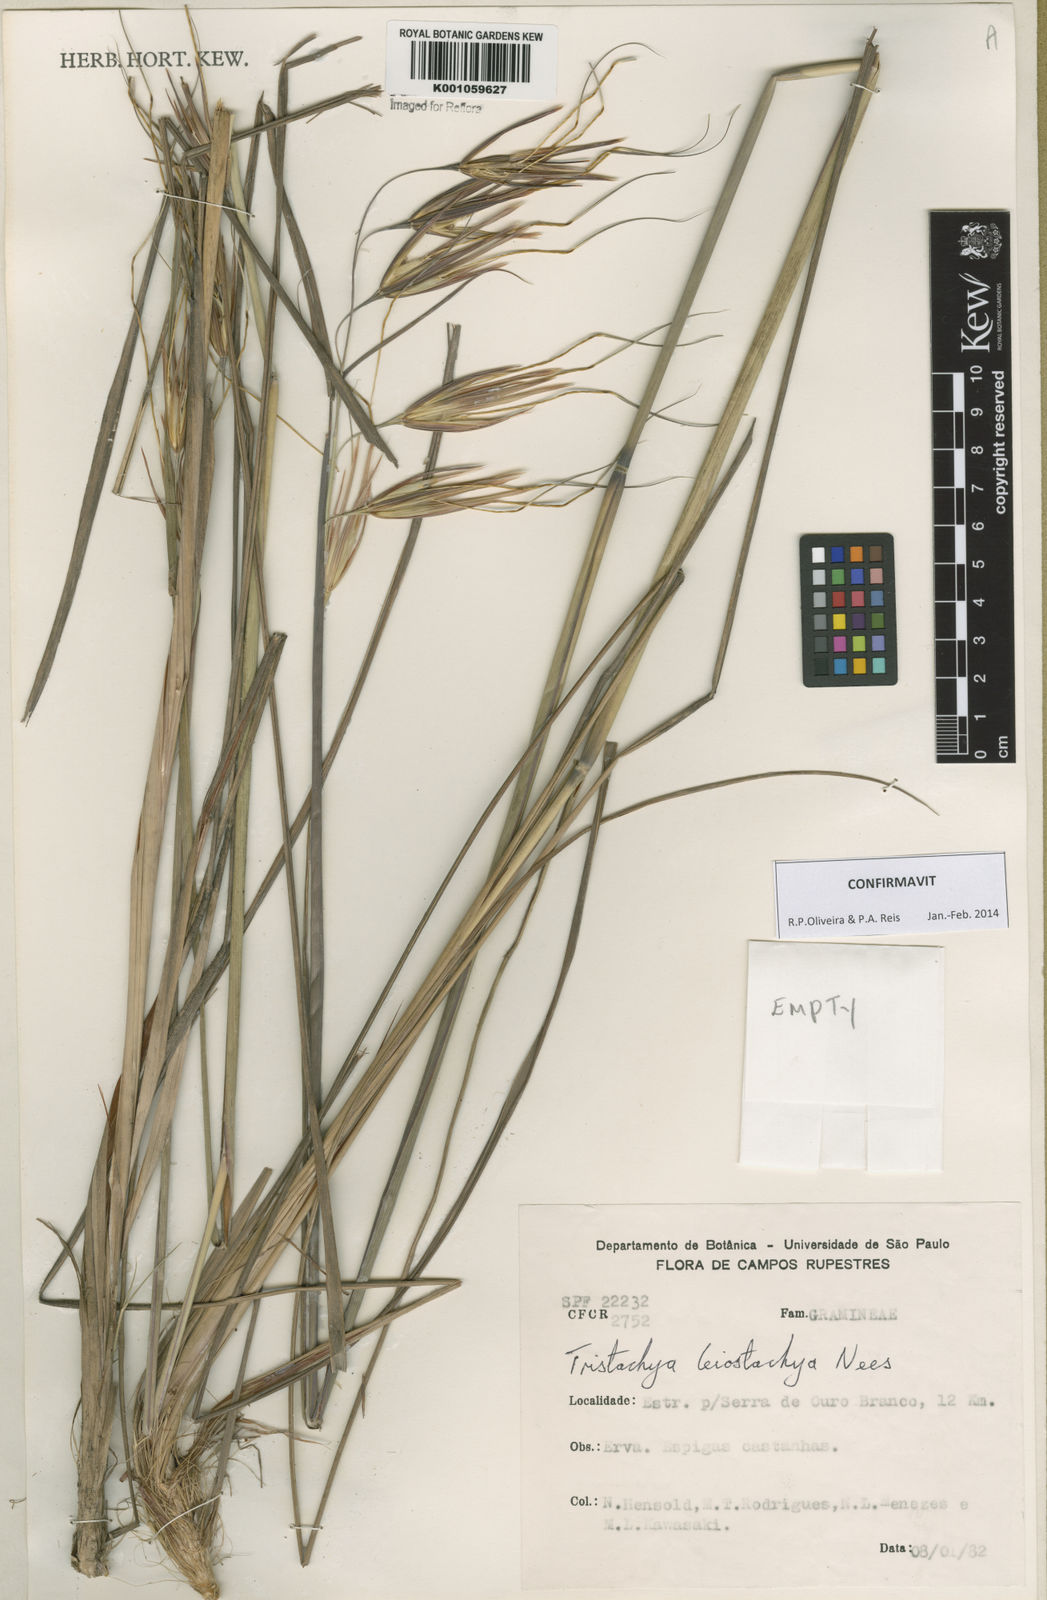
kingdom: Plantae
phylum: Tracheophyta
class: Liliopsida
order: Poales
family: Poaceae
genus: Tristachya
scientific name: Tristachya leiostachya
